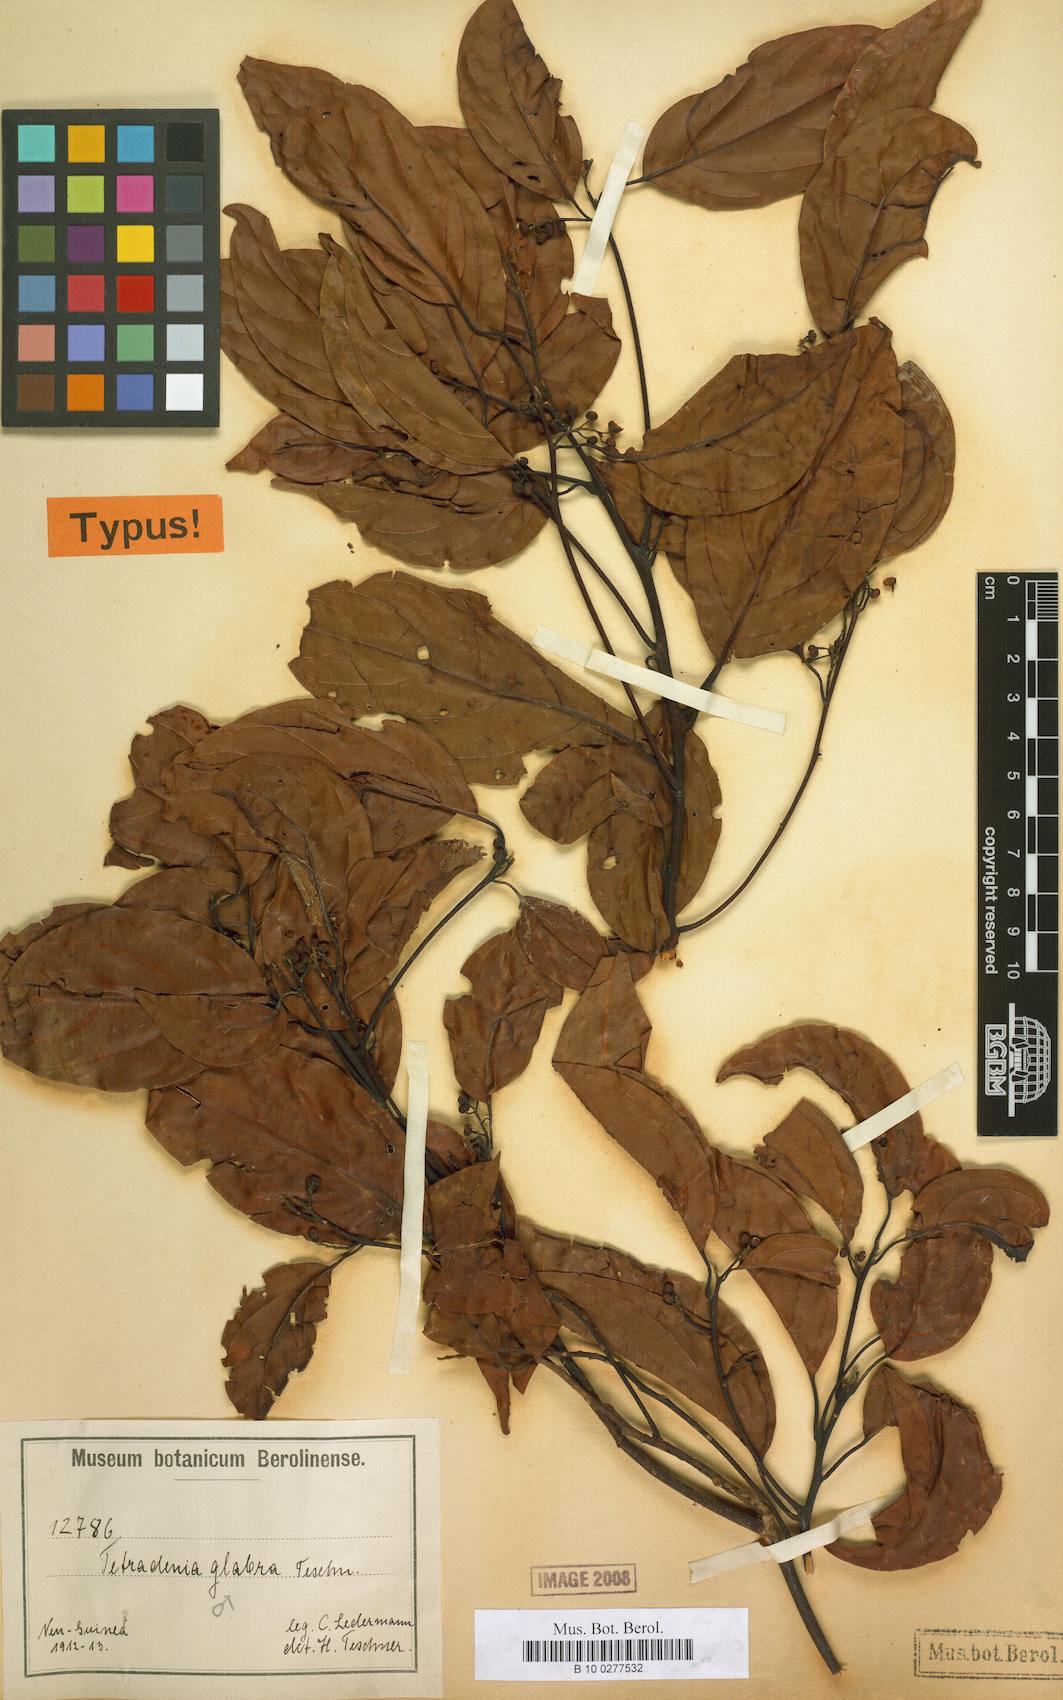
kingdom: Plantae
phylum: Tracheophyta
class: Magnoliopsida
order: Laurales
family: Lauraceae
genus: Neolitsea
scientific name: Neolitsea glabra
